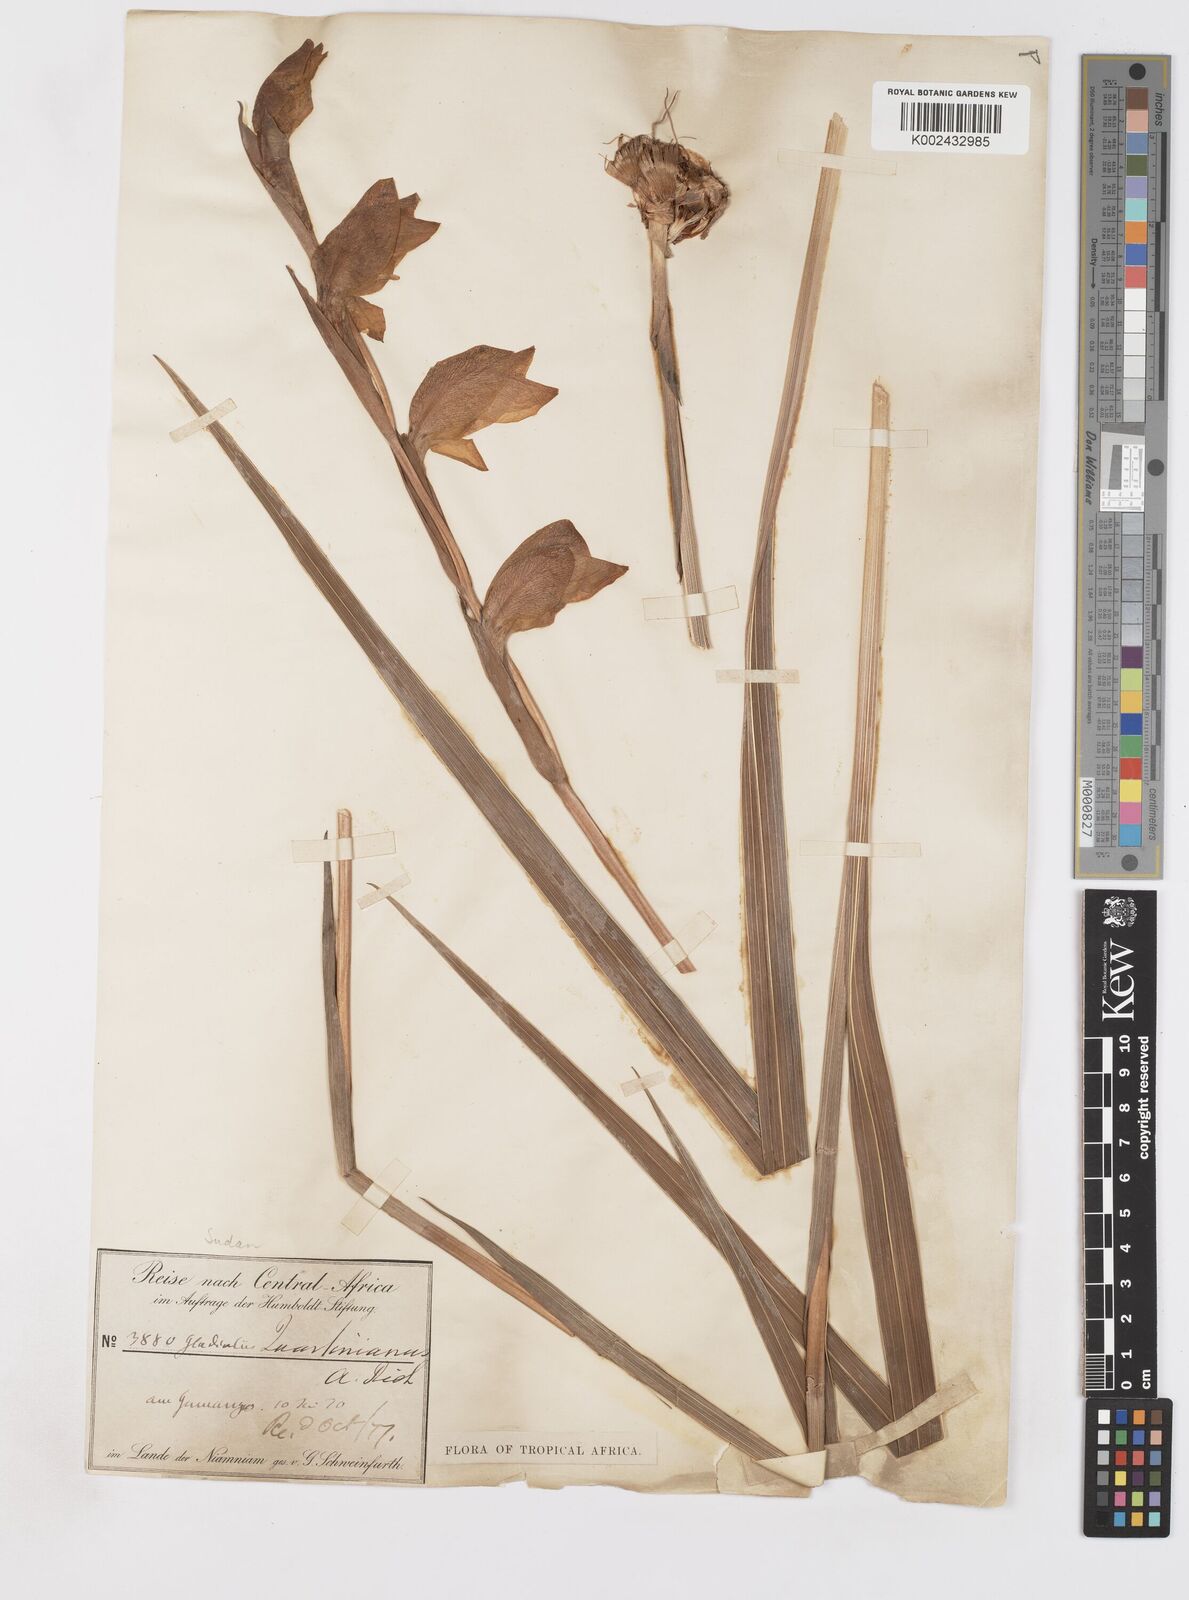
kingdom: Plantae
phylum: Tracheophyta
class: Liliopsida
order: Asparagales
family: Iridaceae
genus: Gladiolus
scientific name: Gladiolus dalenii
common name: Cornflag
